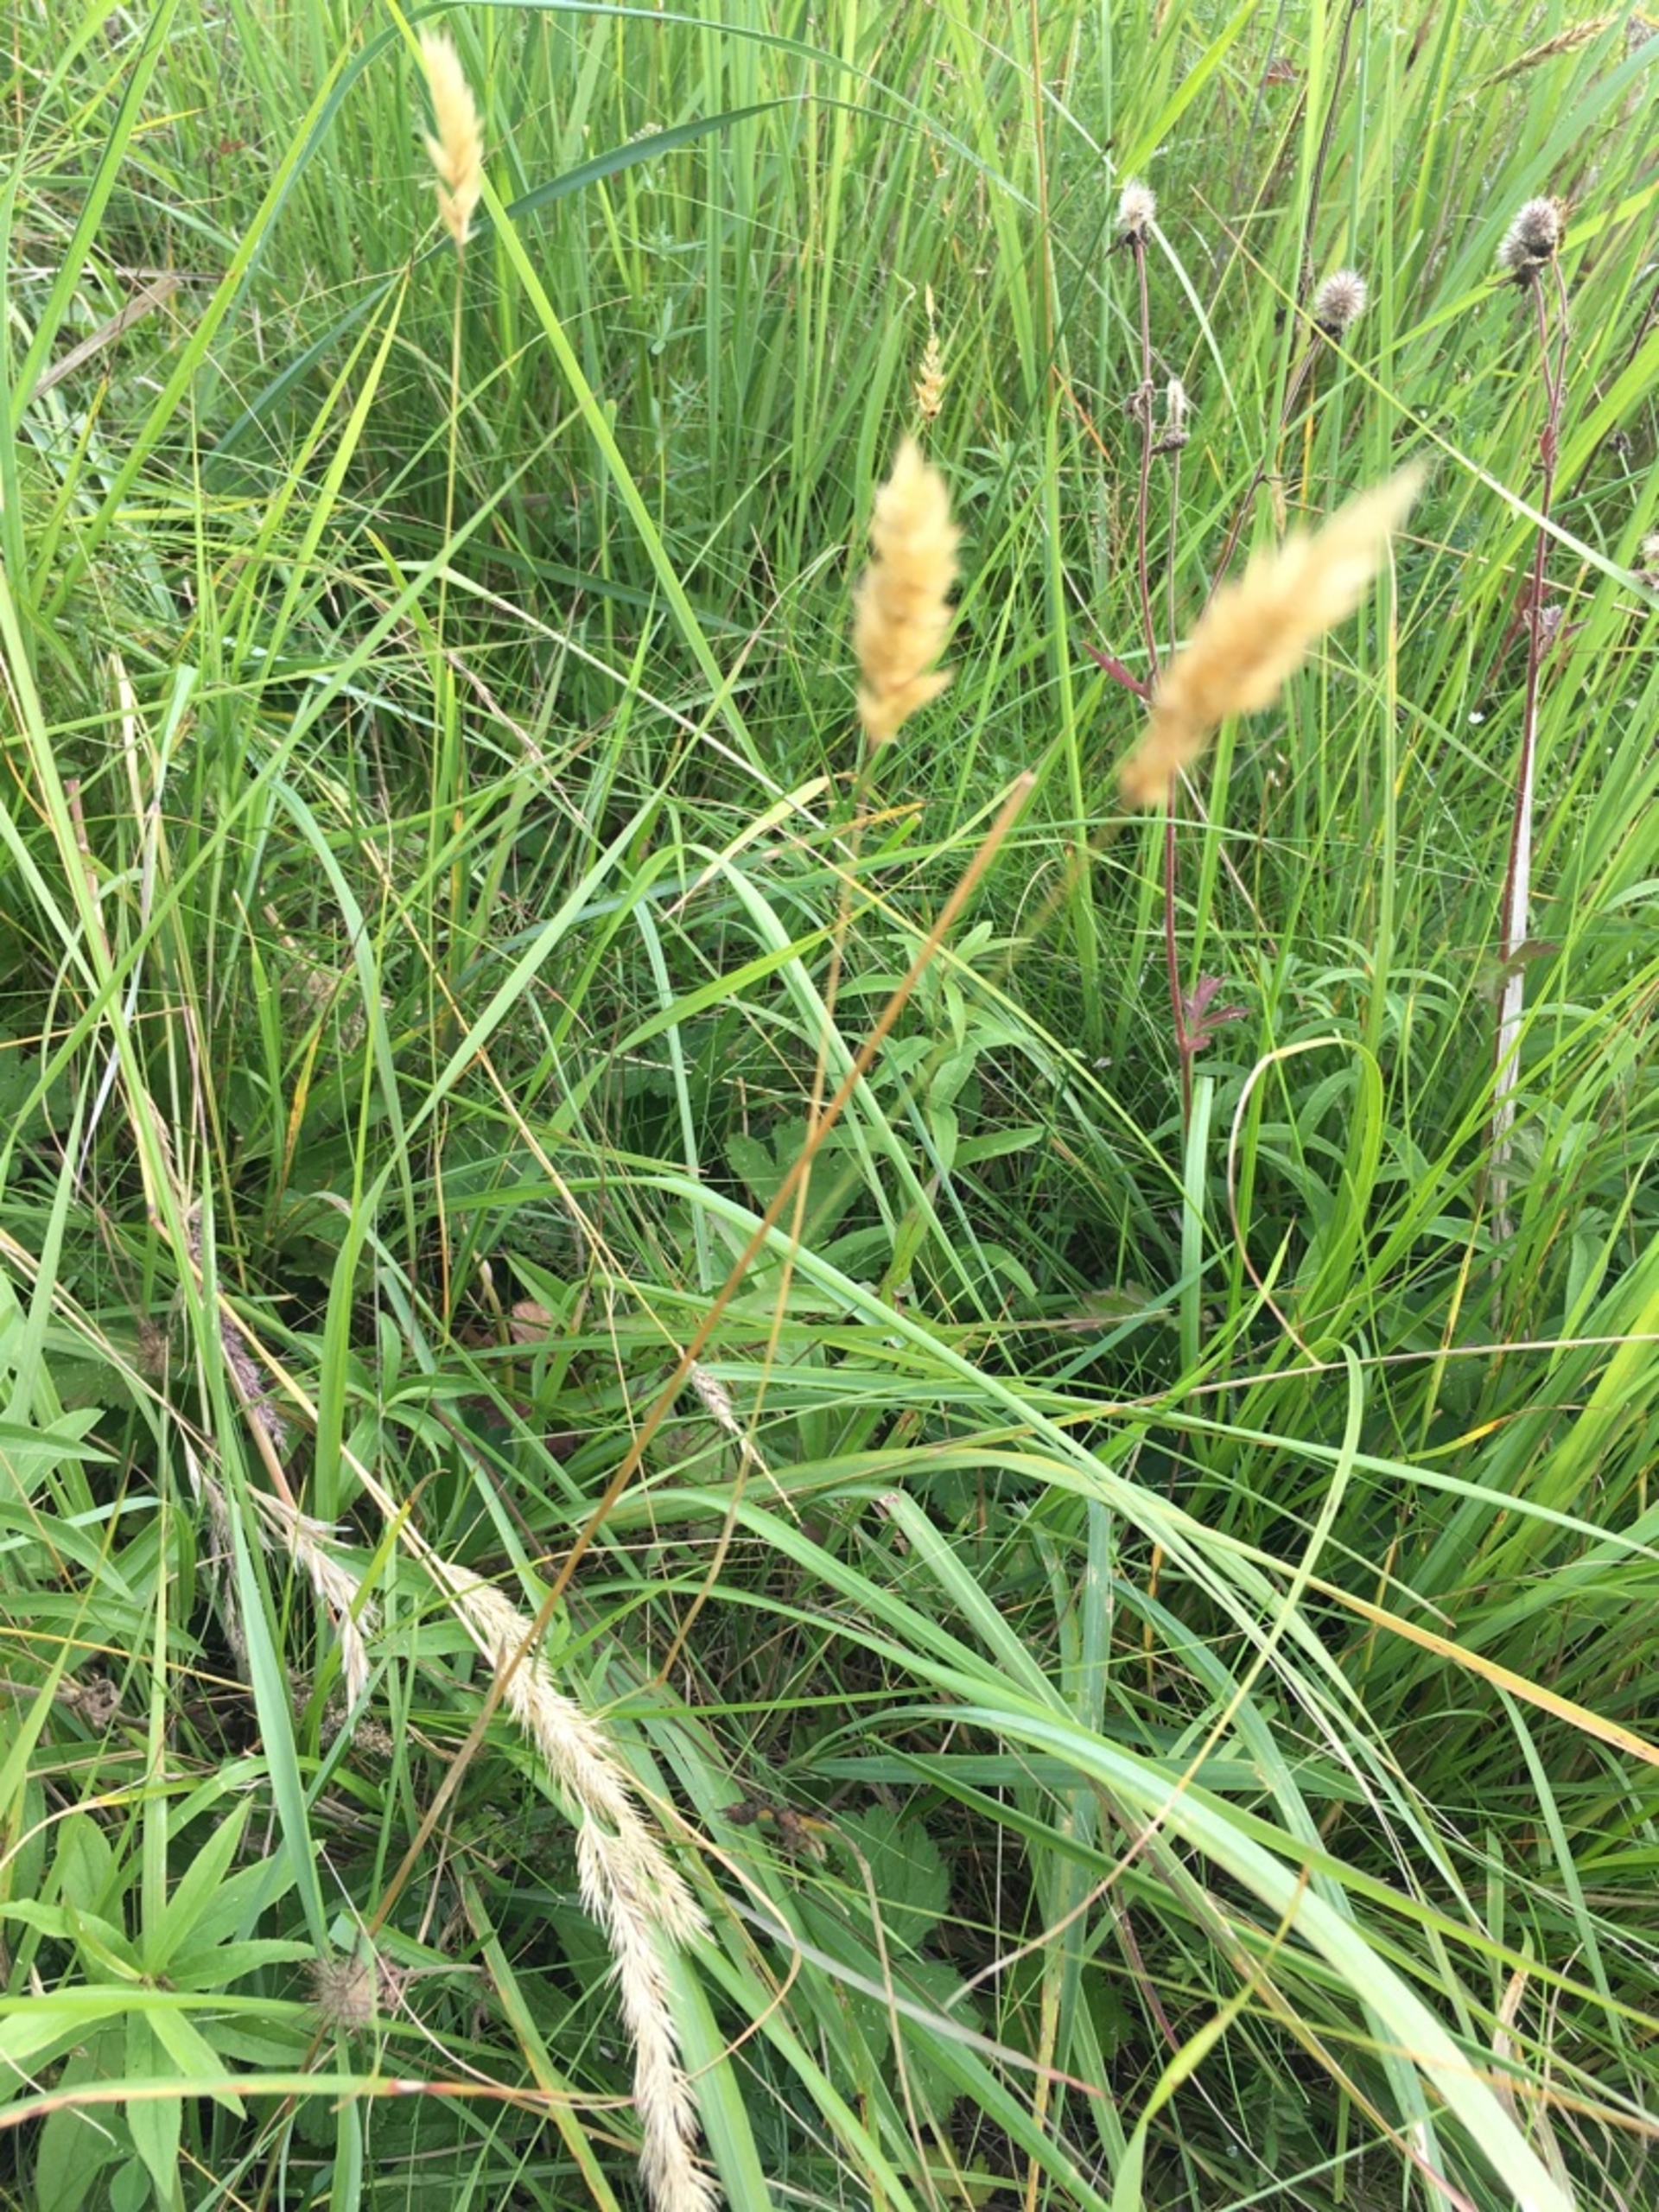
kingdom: Plantae
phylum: Tracheophyta
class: Liliopsida
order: Poales
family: Poaceae
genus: Anthoxanthum
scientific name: Anthoxanthum odoratum
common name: Vellugtende gulaks
